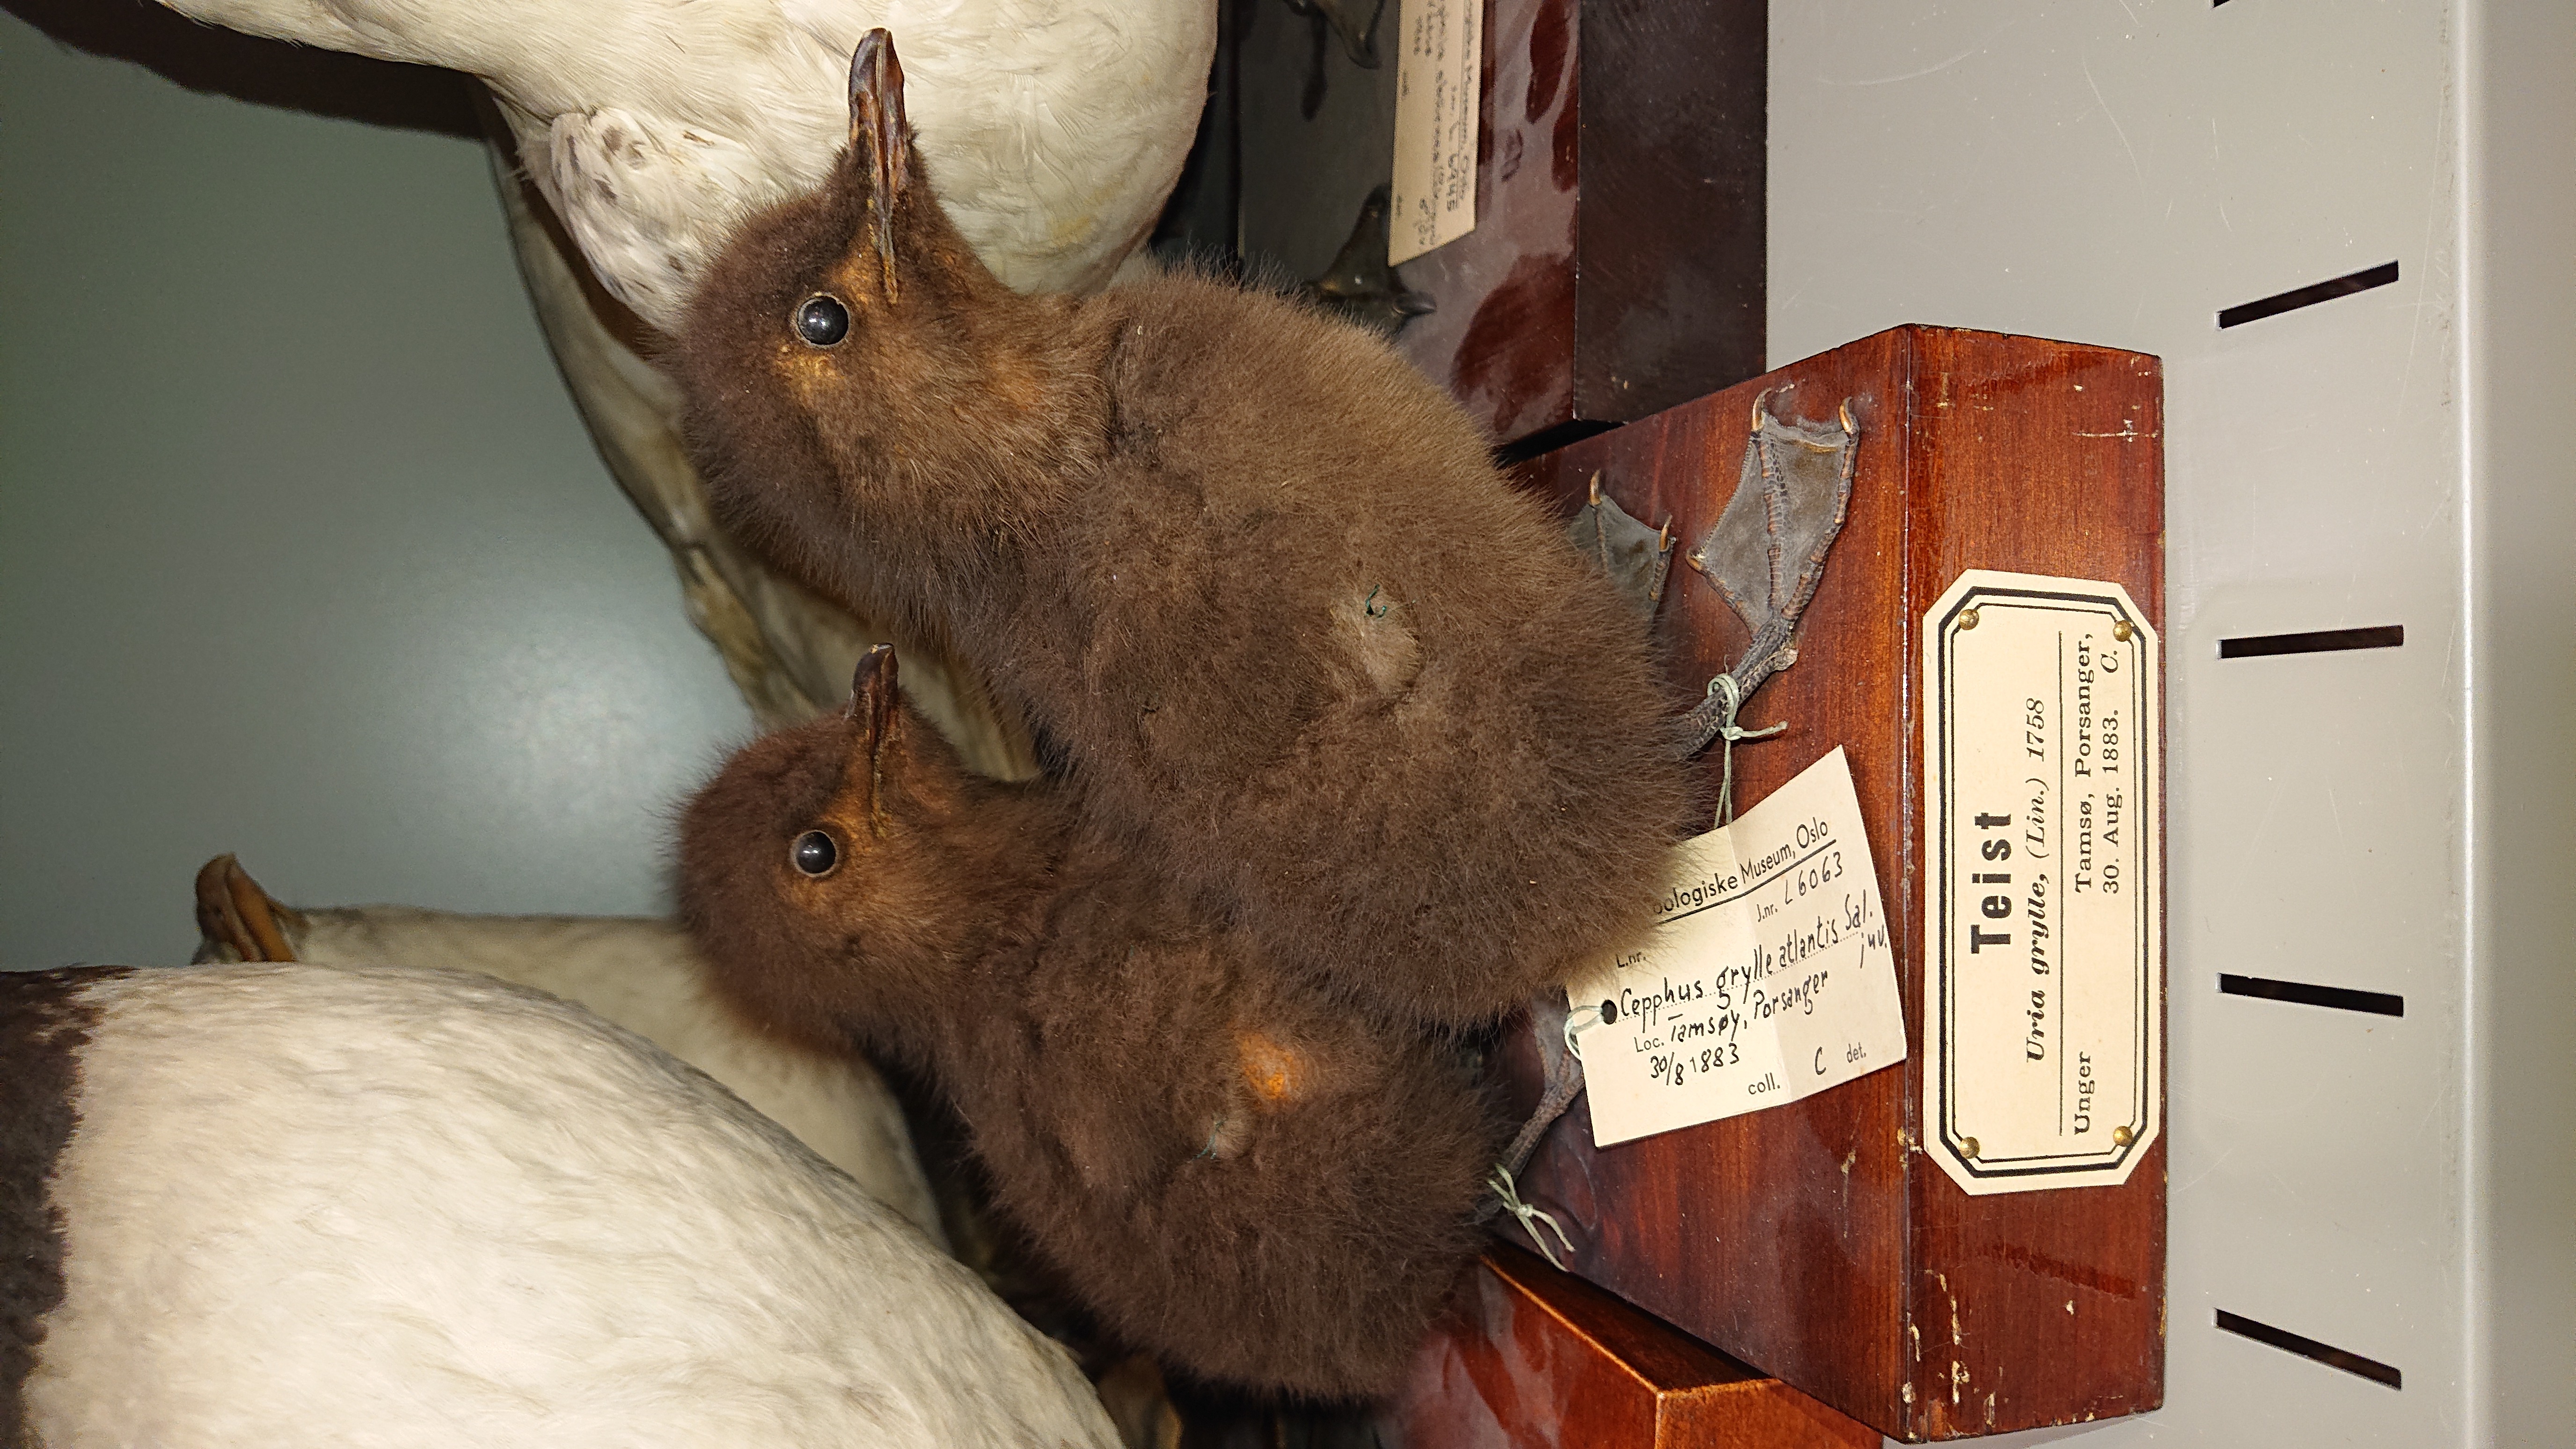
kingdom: Animalia
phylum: Chordata
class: Aves
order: Charadriiformes
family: Alcidae
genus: Cepphus
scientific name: Cepphus grylle
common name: Black guillemot
